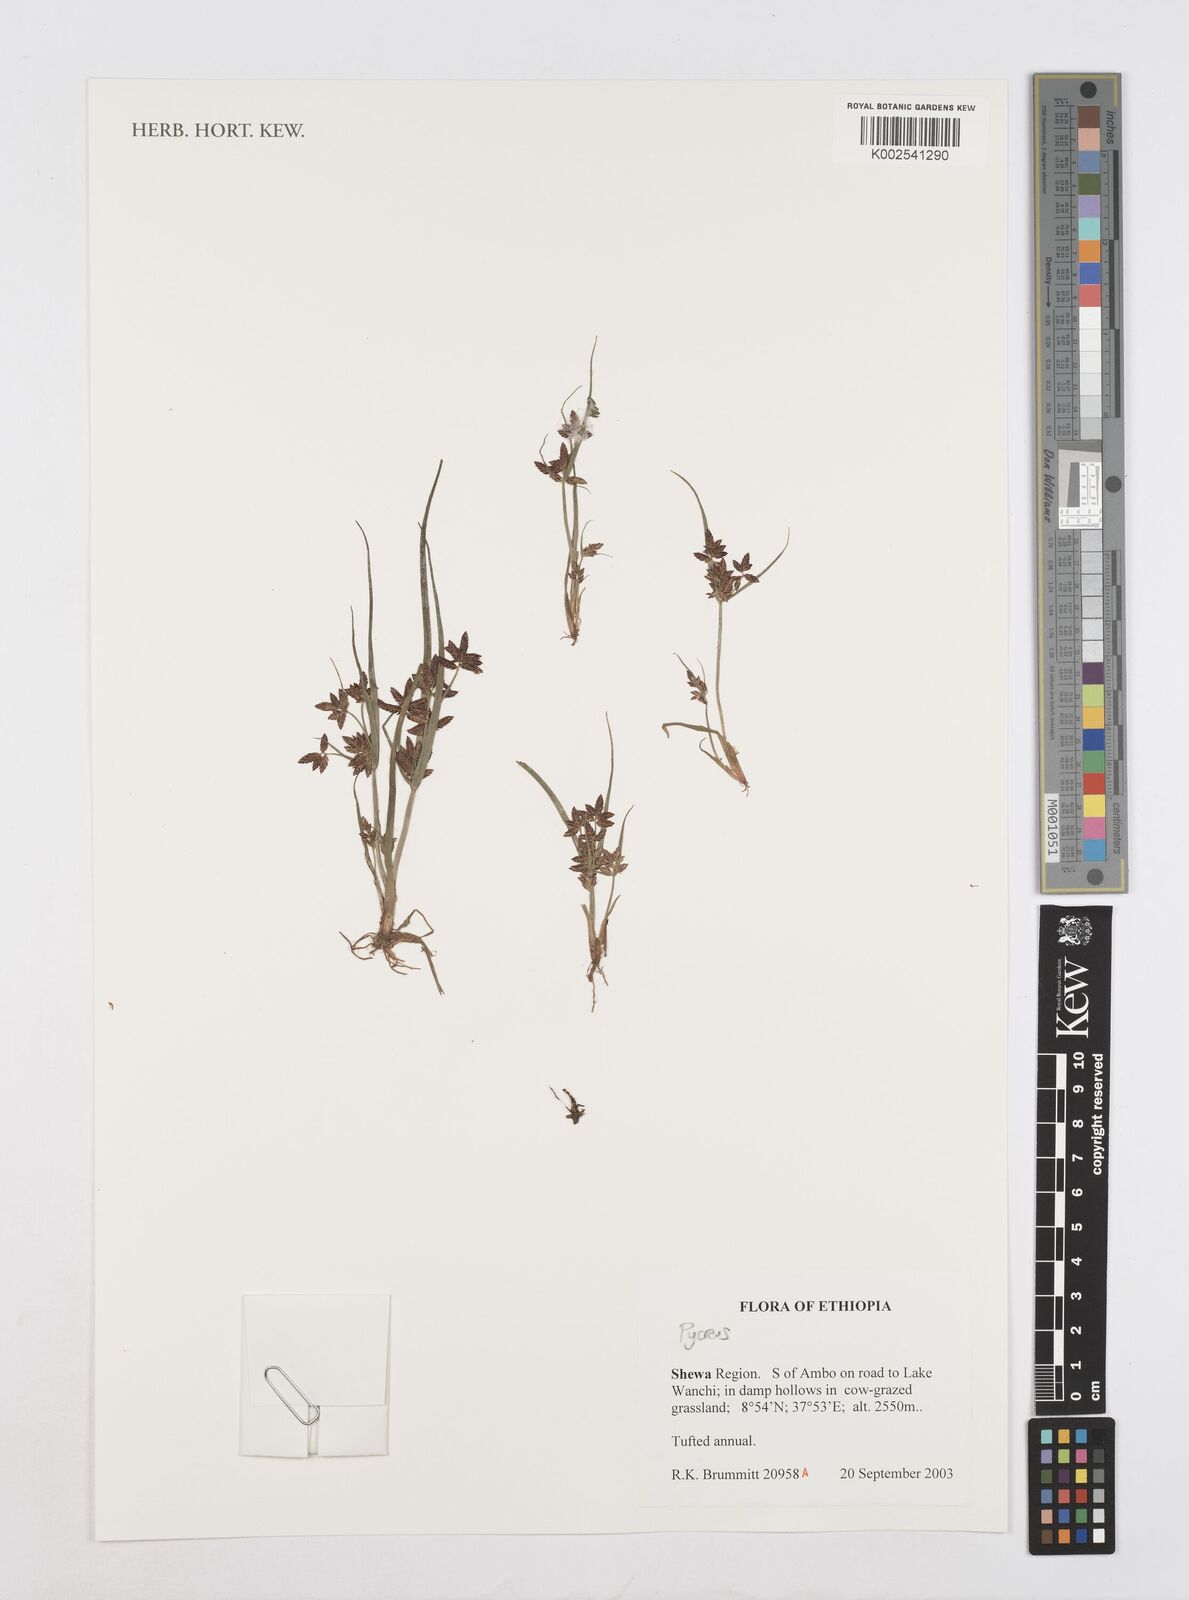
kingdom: Plantae
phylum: Tracheophyta
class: Liliopsida
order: Poales
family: Cyperaceae
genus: Cyperus
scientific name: Cyperus
